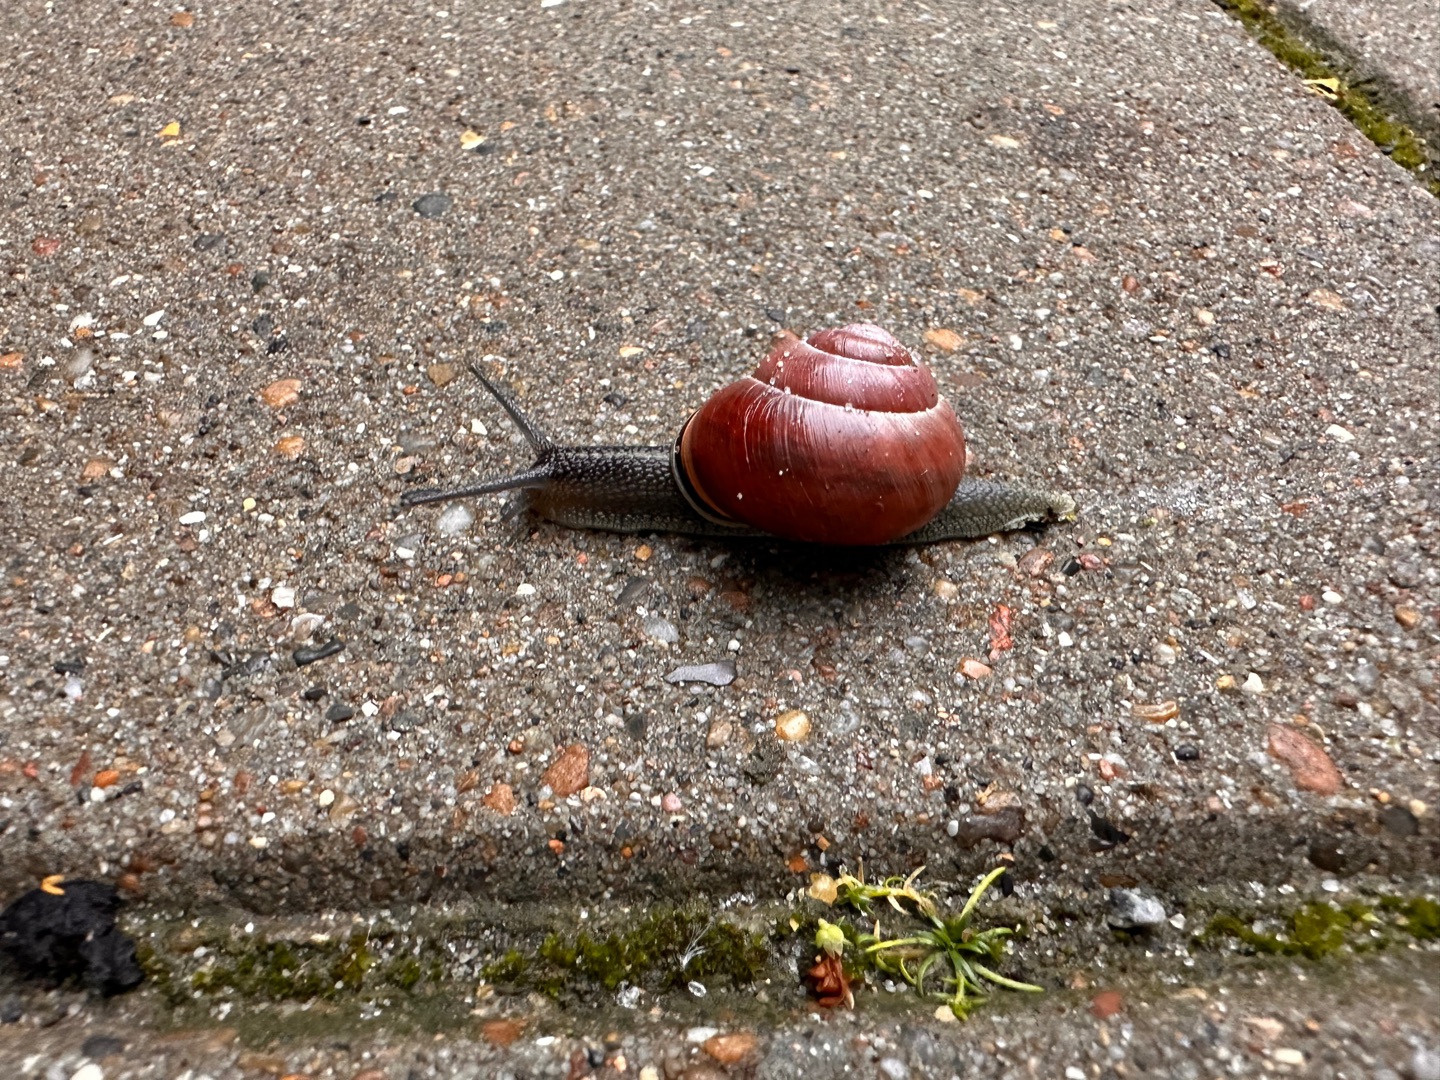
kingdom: Animalia
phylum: Mollusca
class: Gastropoda
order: Stylommatophora
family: Helicidae
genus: Cepaea
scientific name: Cepaea nemoralis
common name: Lundsnegl
